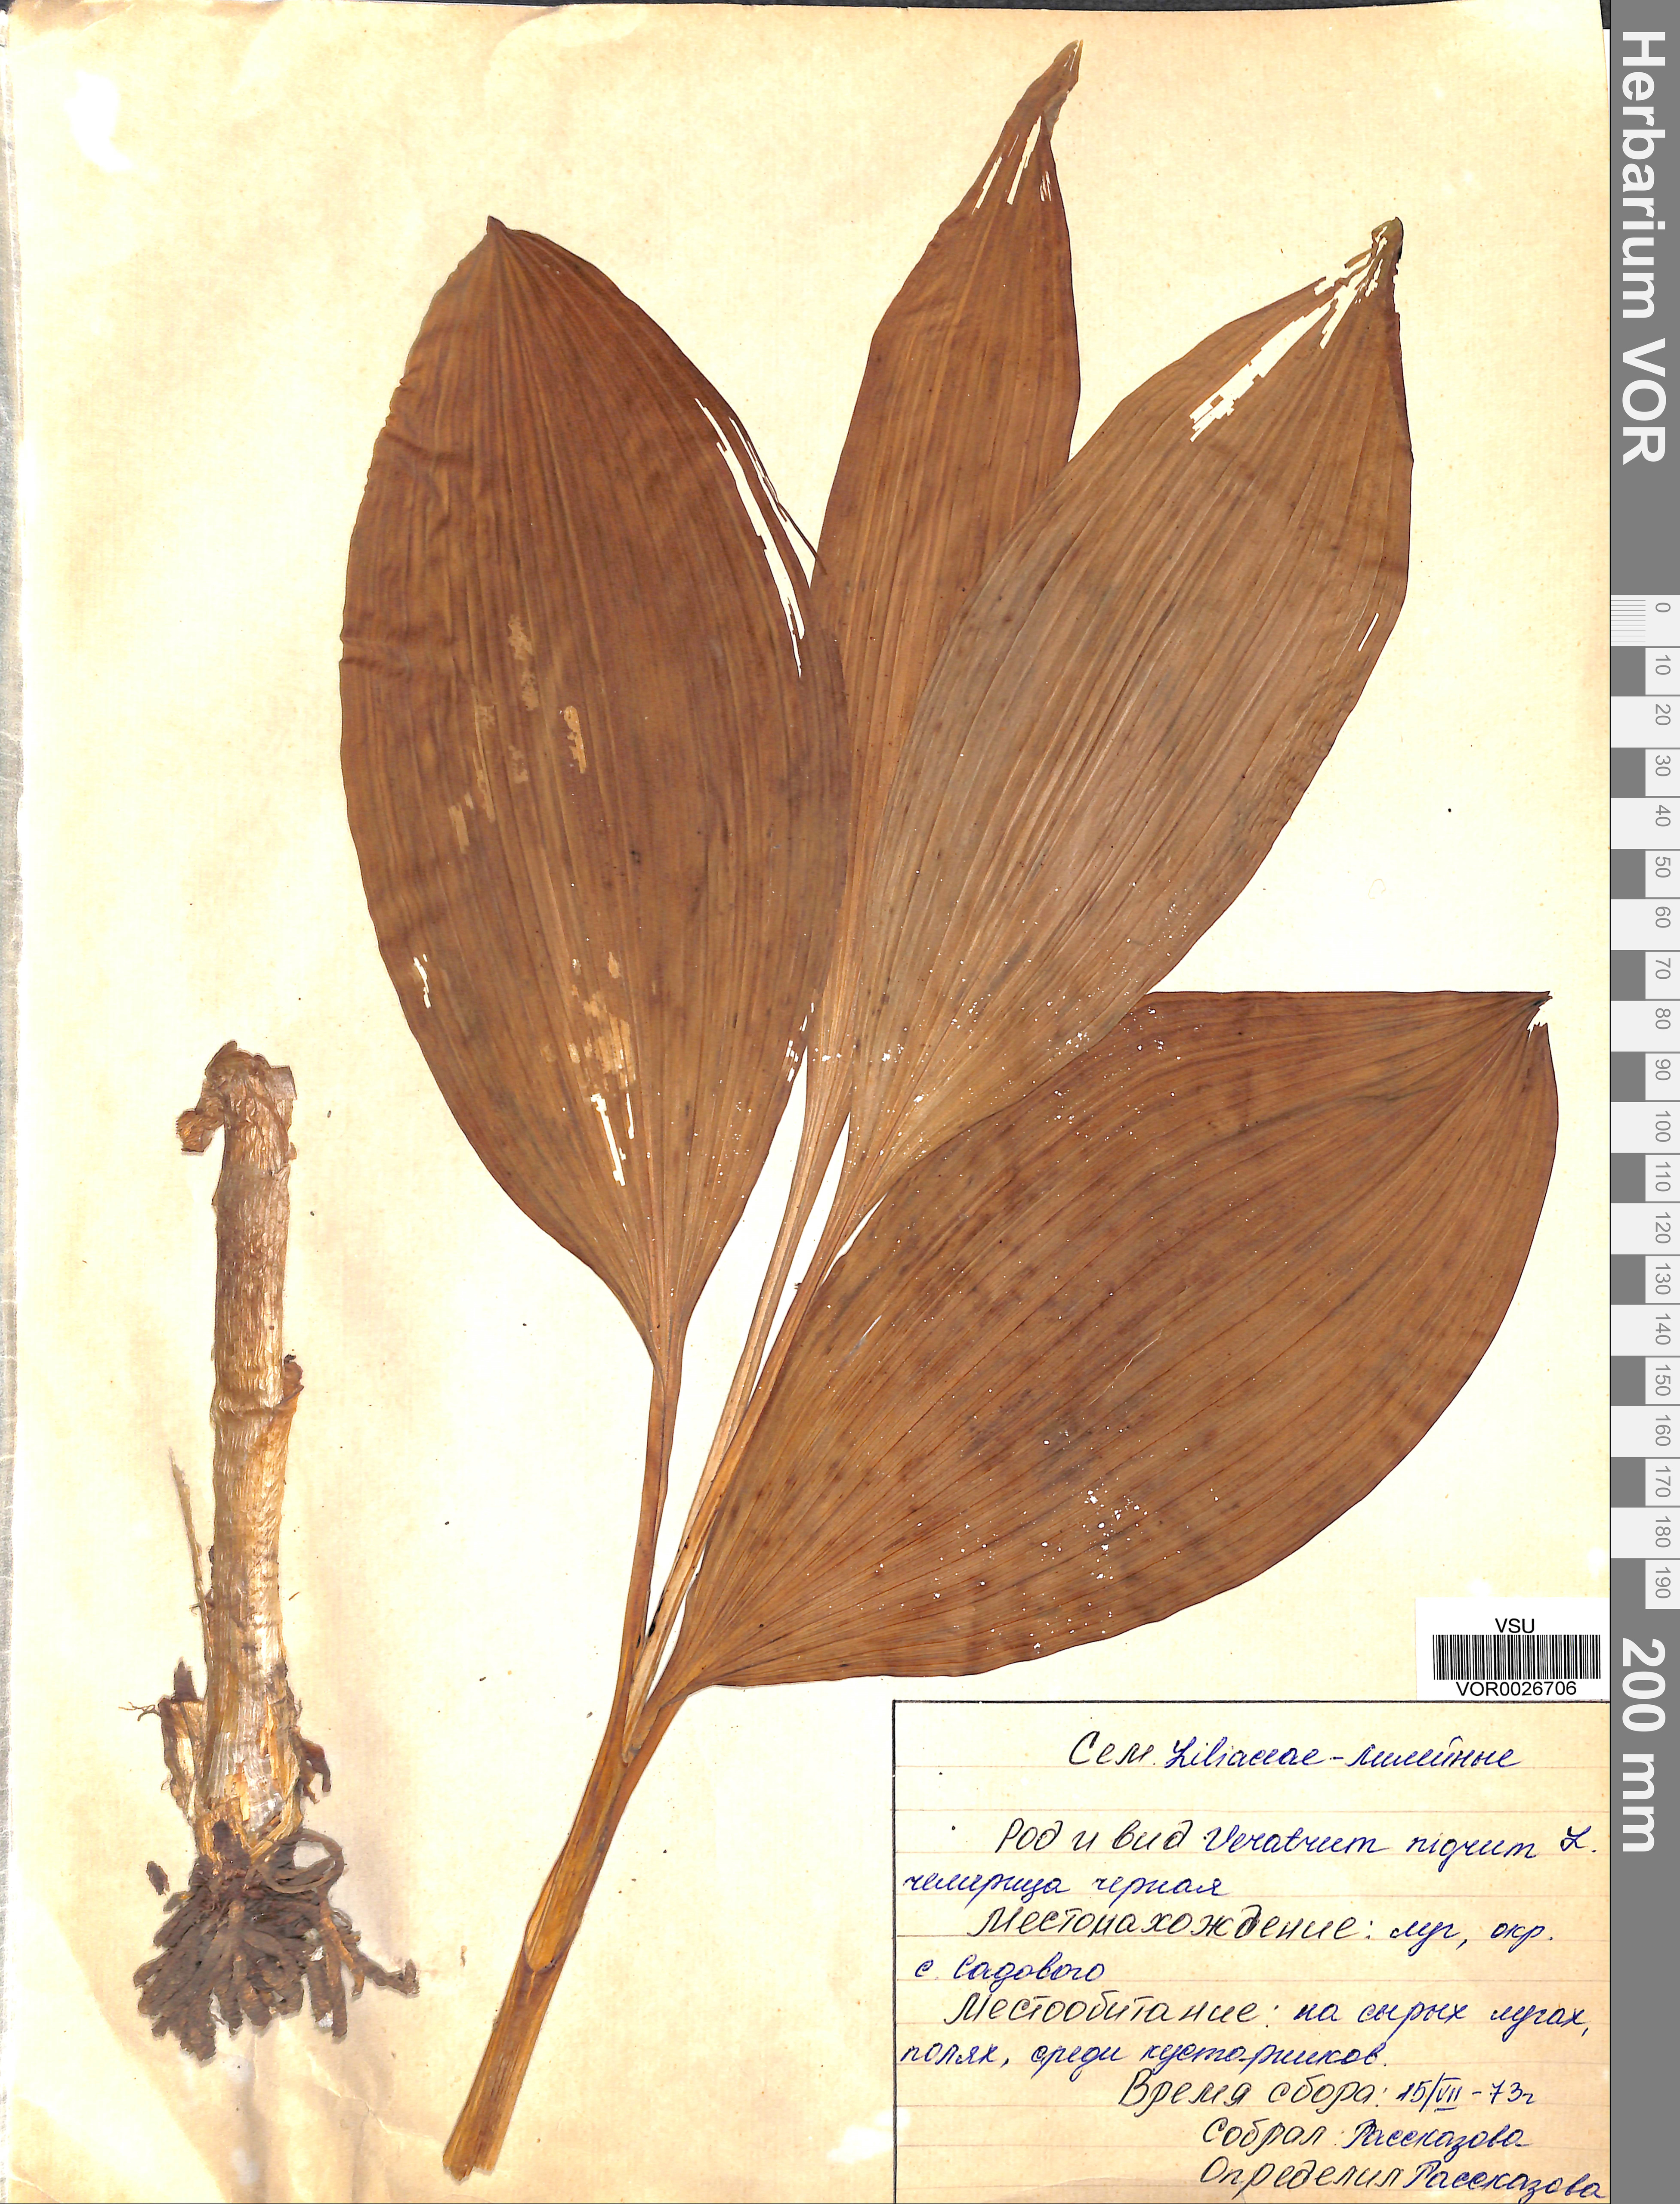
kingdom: Plantae
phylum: Tracheophyta
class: Liliopsida
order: Liliales
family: Melanthiaceae
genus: Veratrum
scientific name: Veratrum nigrum
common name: Black veratrum
